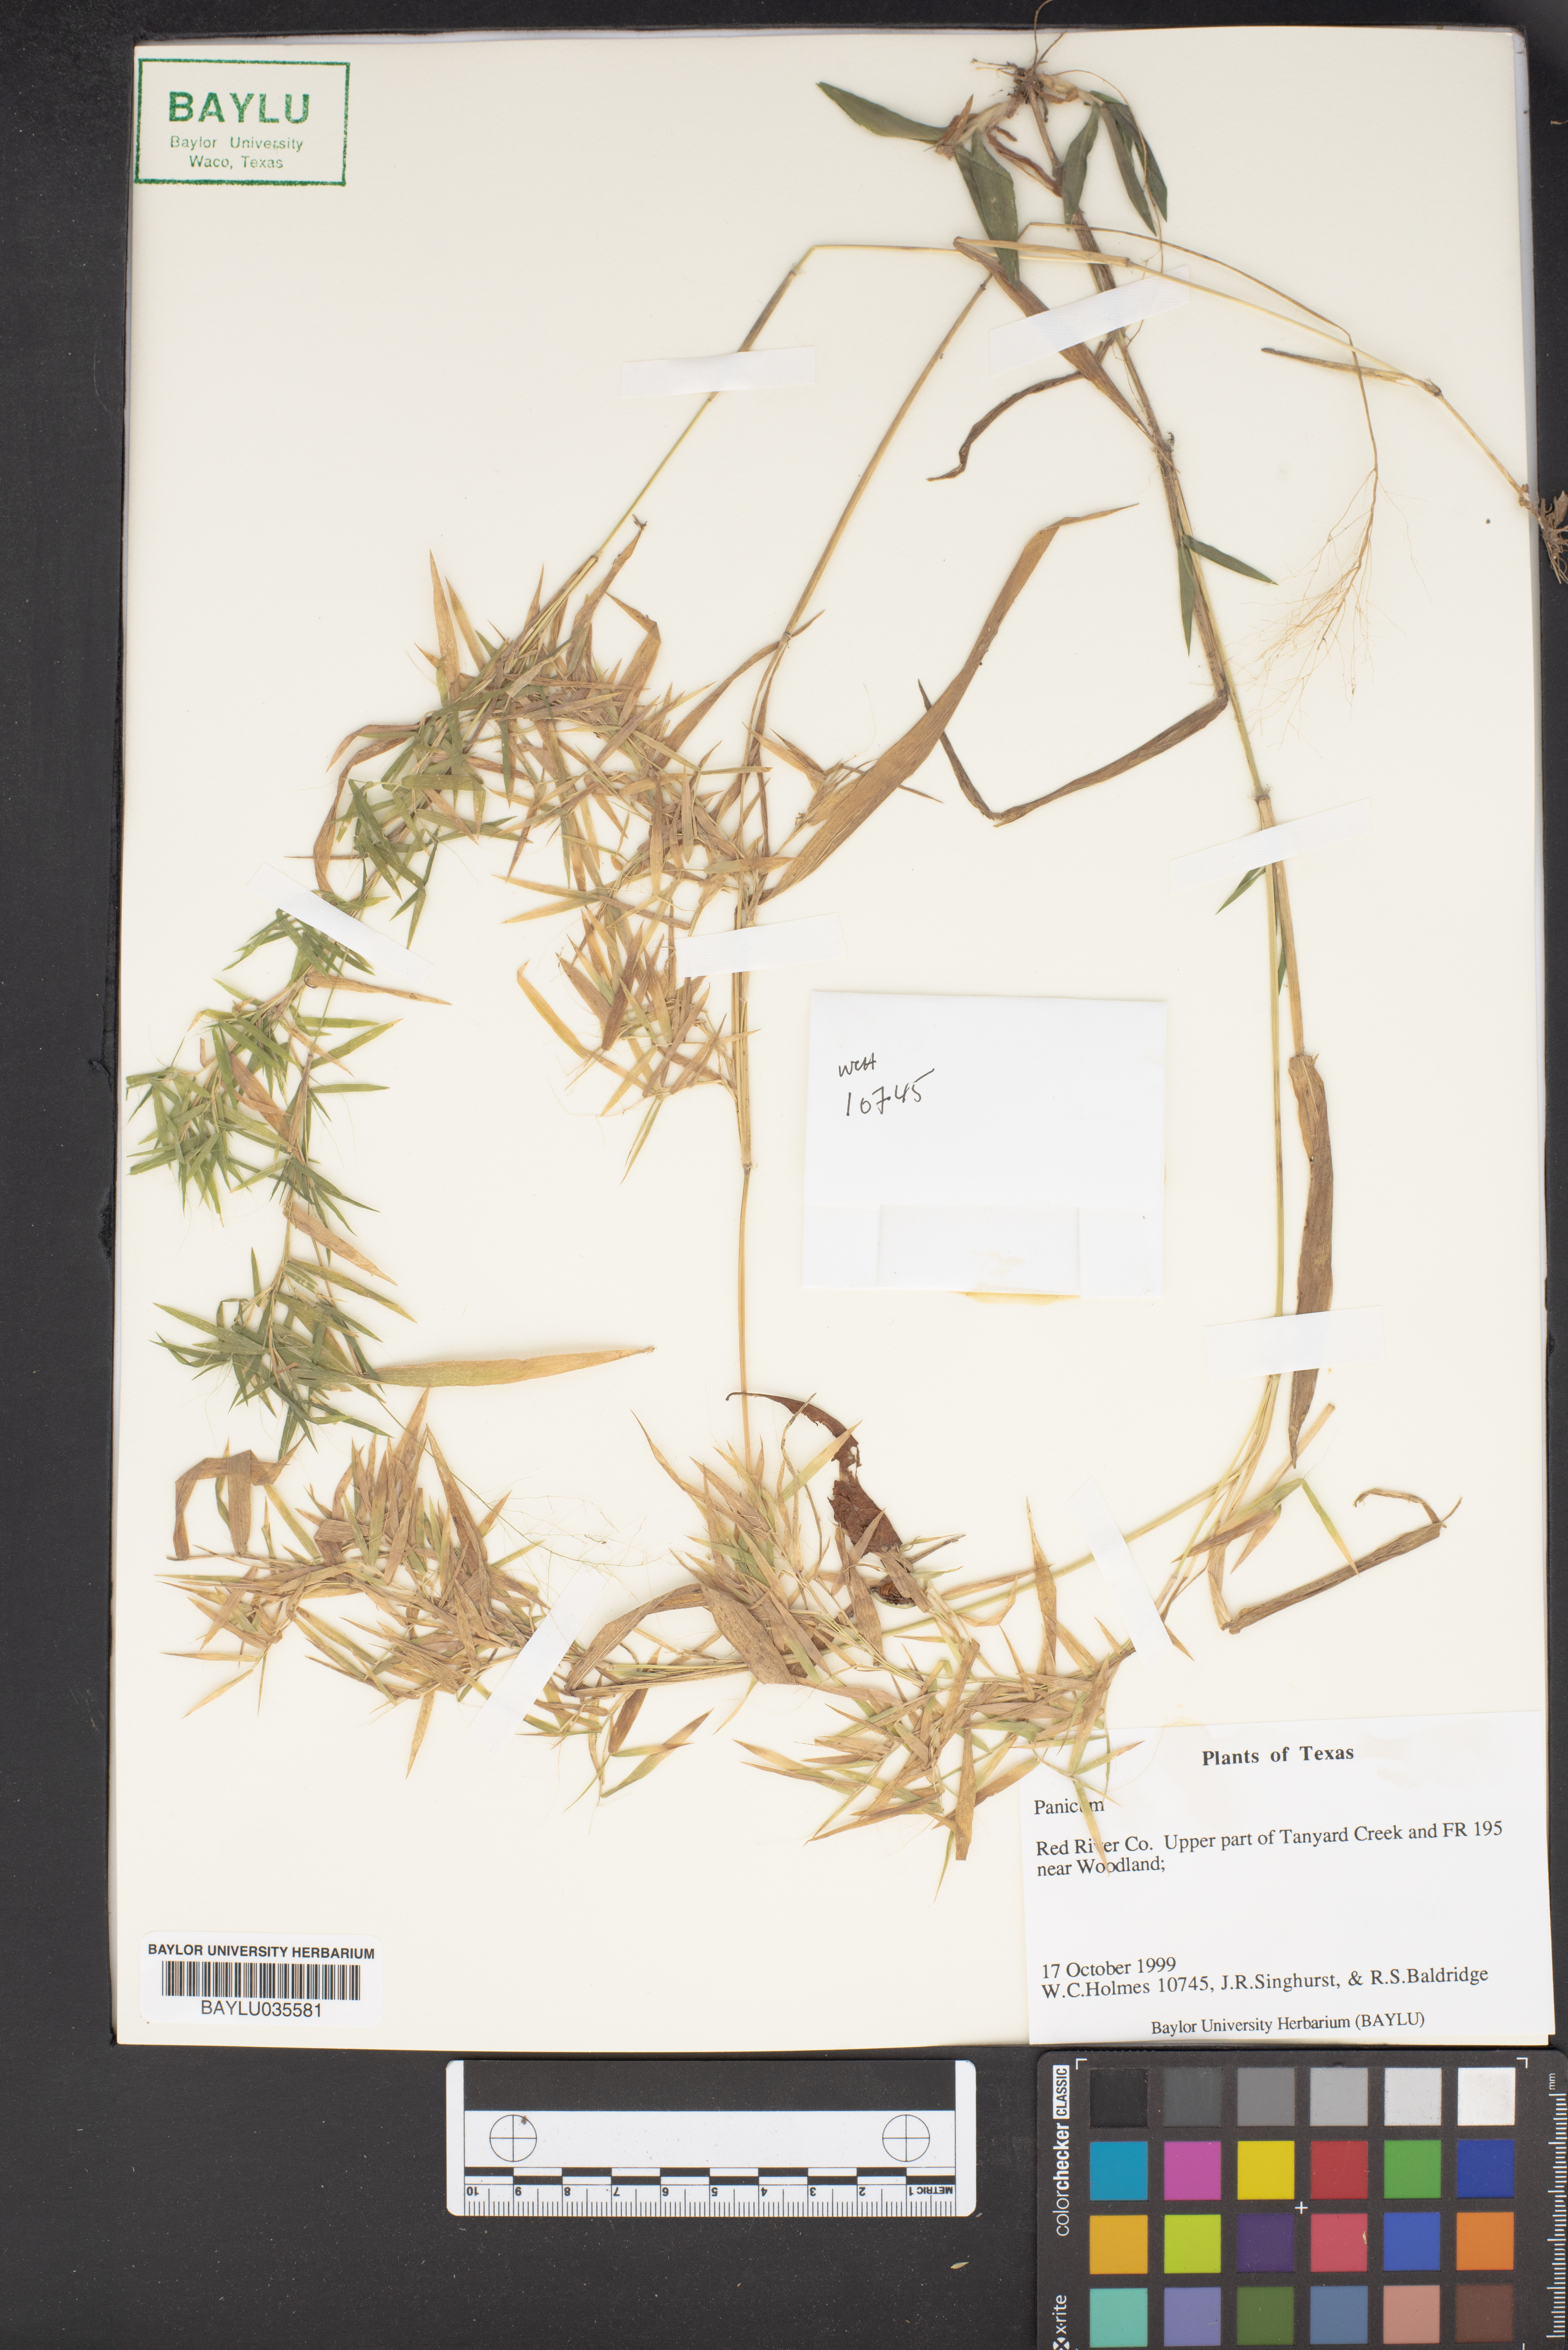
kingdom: Plantae
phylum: Tracheophyta
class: Liliopsida
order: Poales
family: Poaceae
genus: Panicum
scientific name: Panicum
